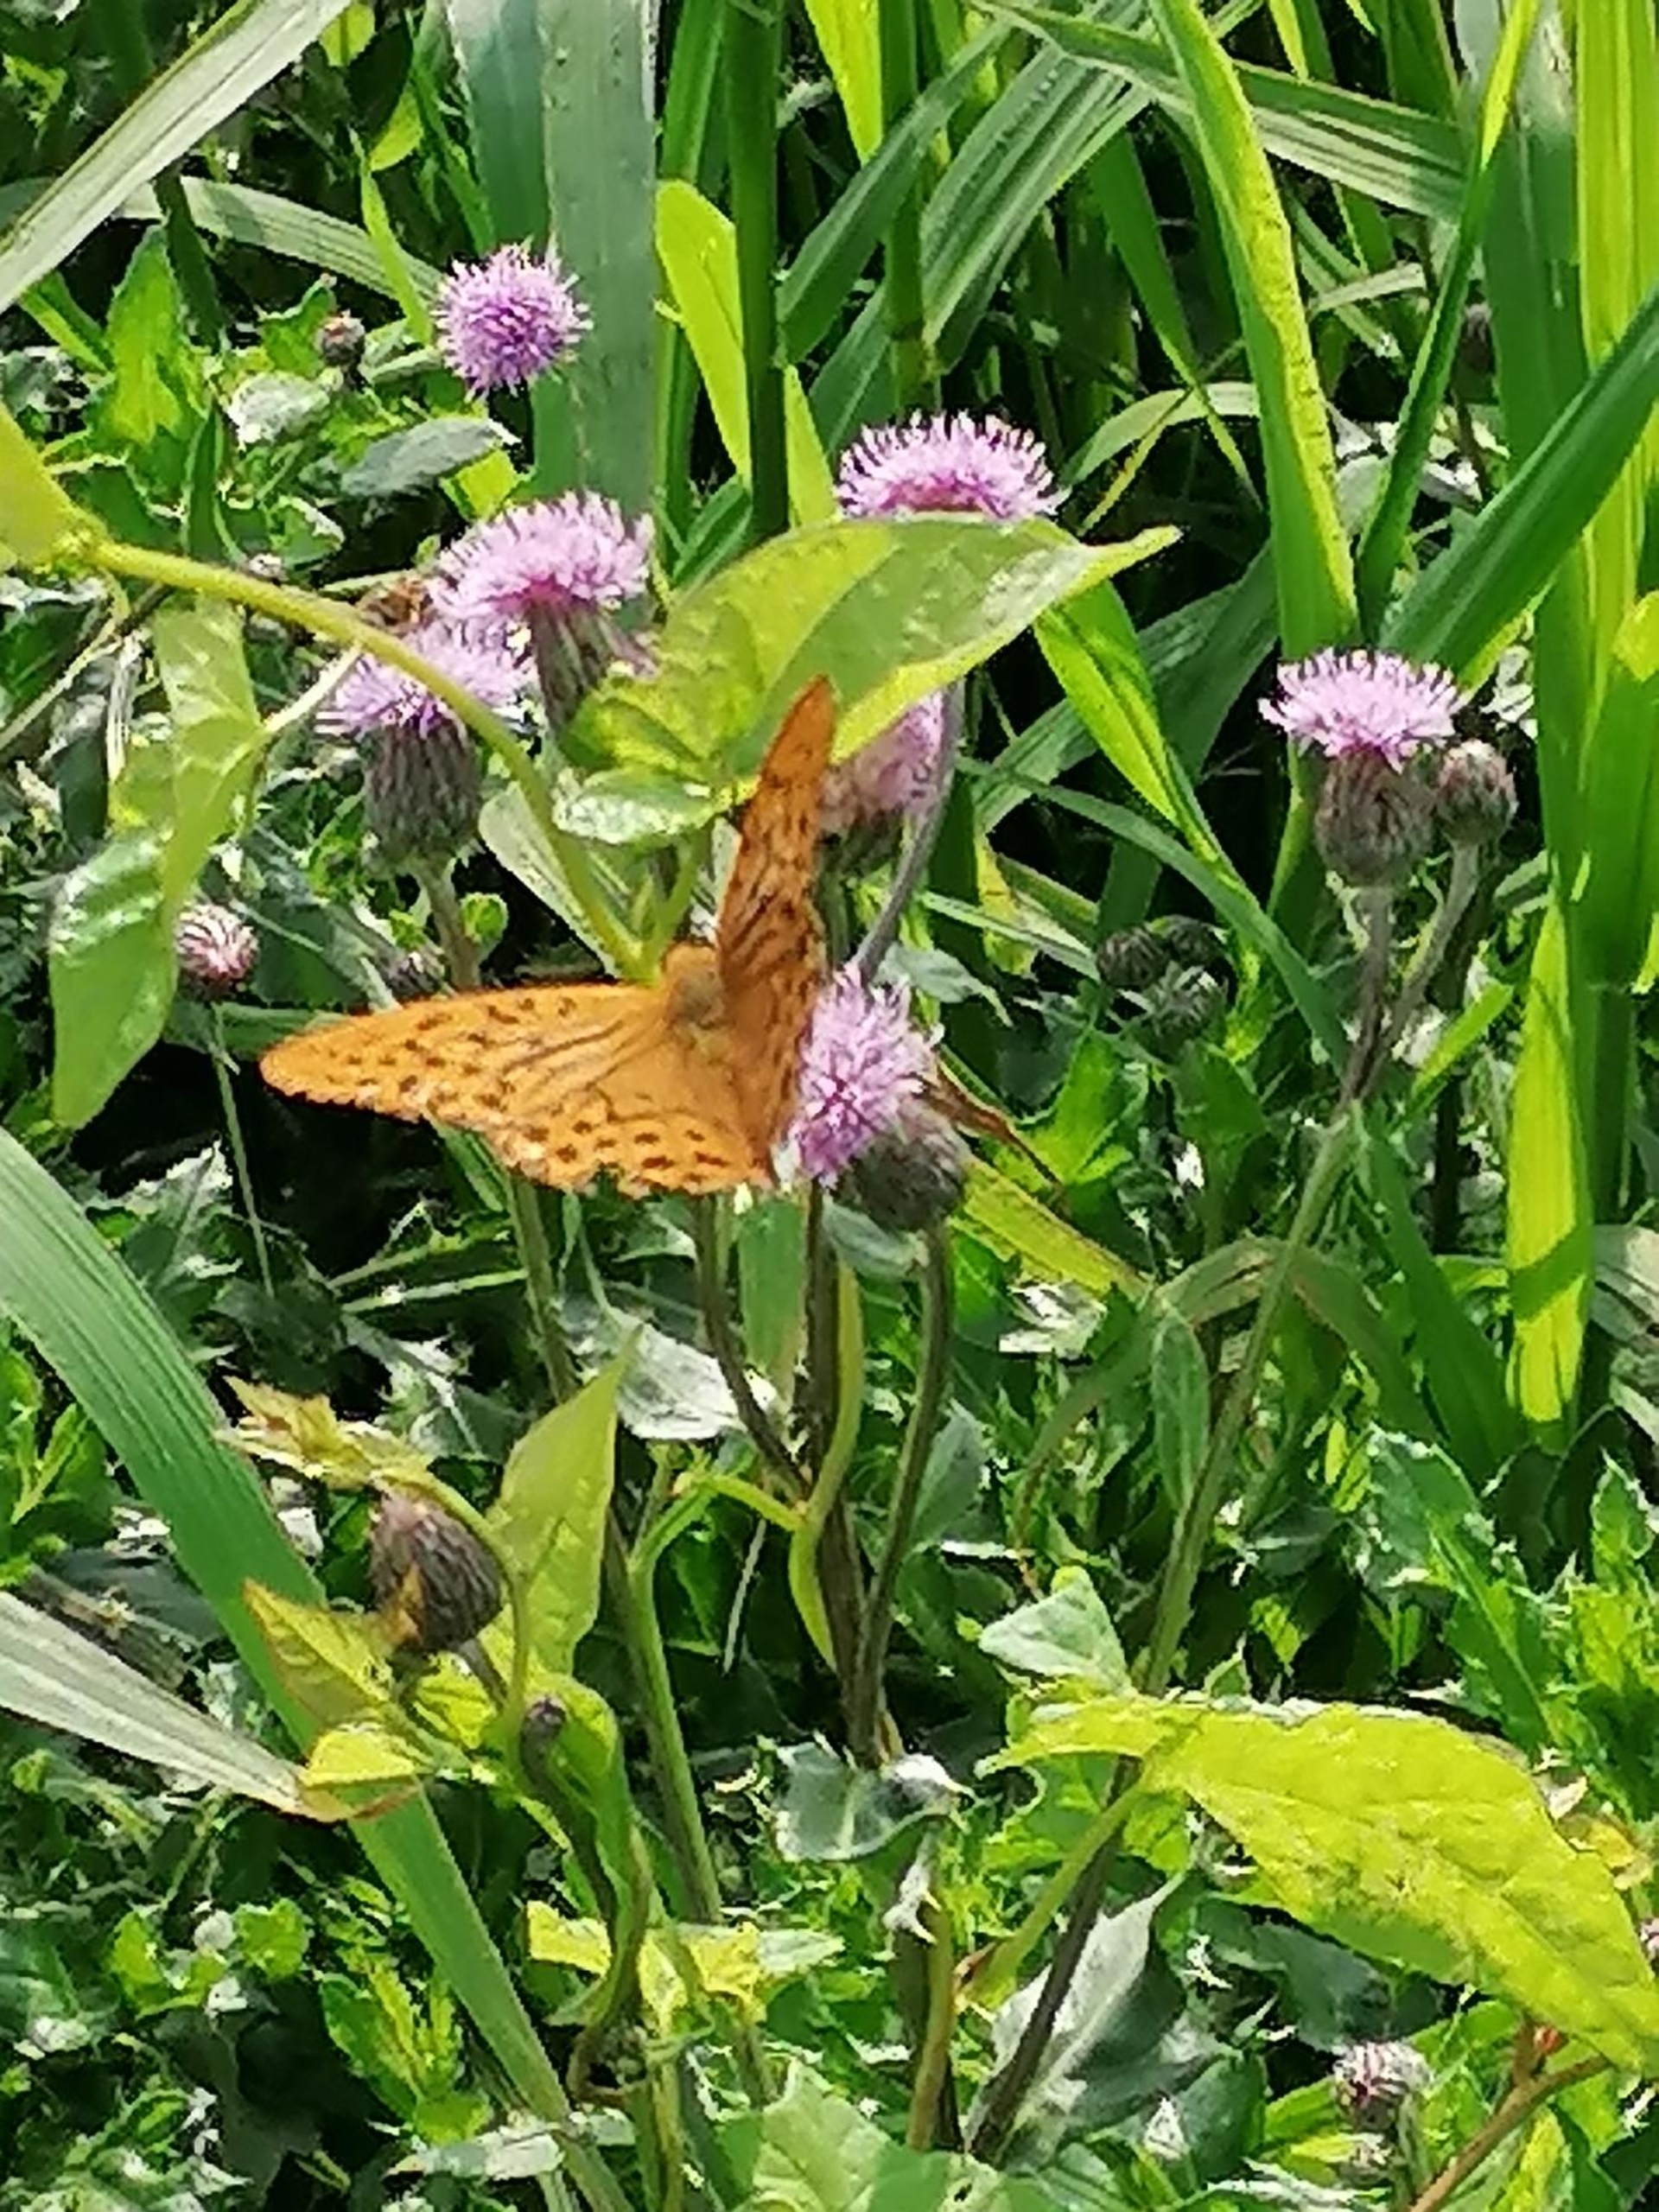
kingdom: Animalia
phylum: Arthropoda
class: Insecta
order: Lepidoptera
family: Nymphalidae
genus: Argynnis
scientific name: Argynnis paphia
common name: Kejserkåbe
